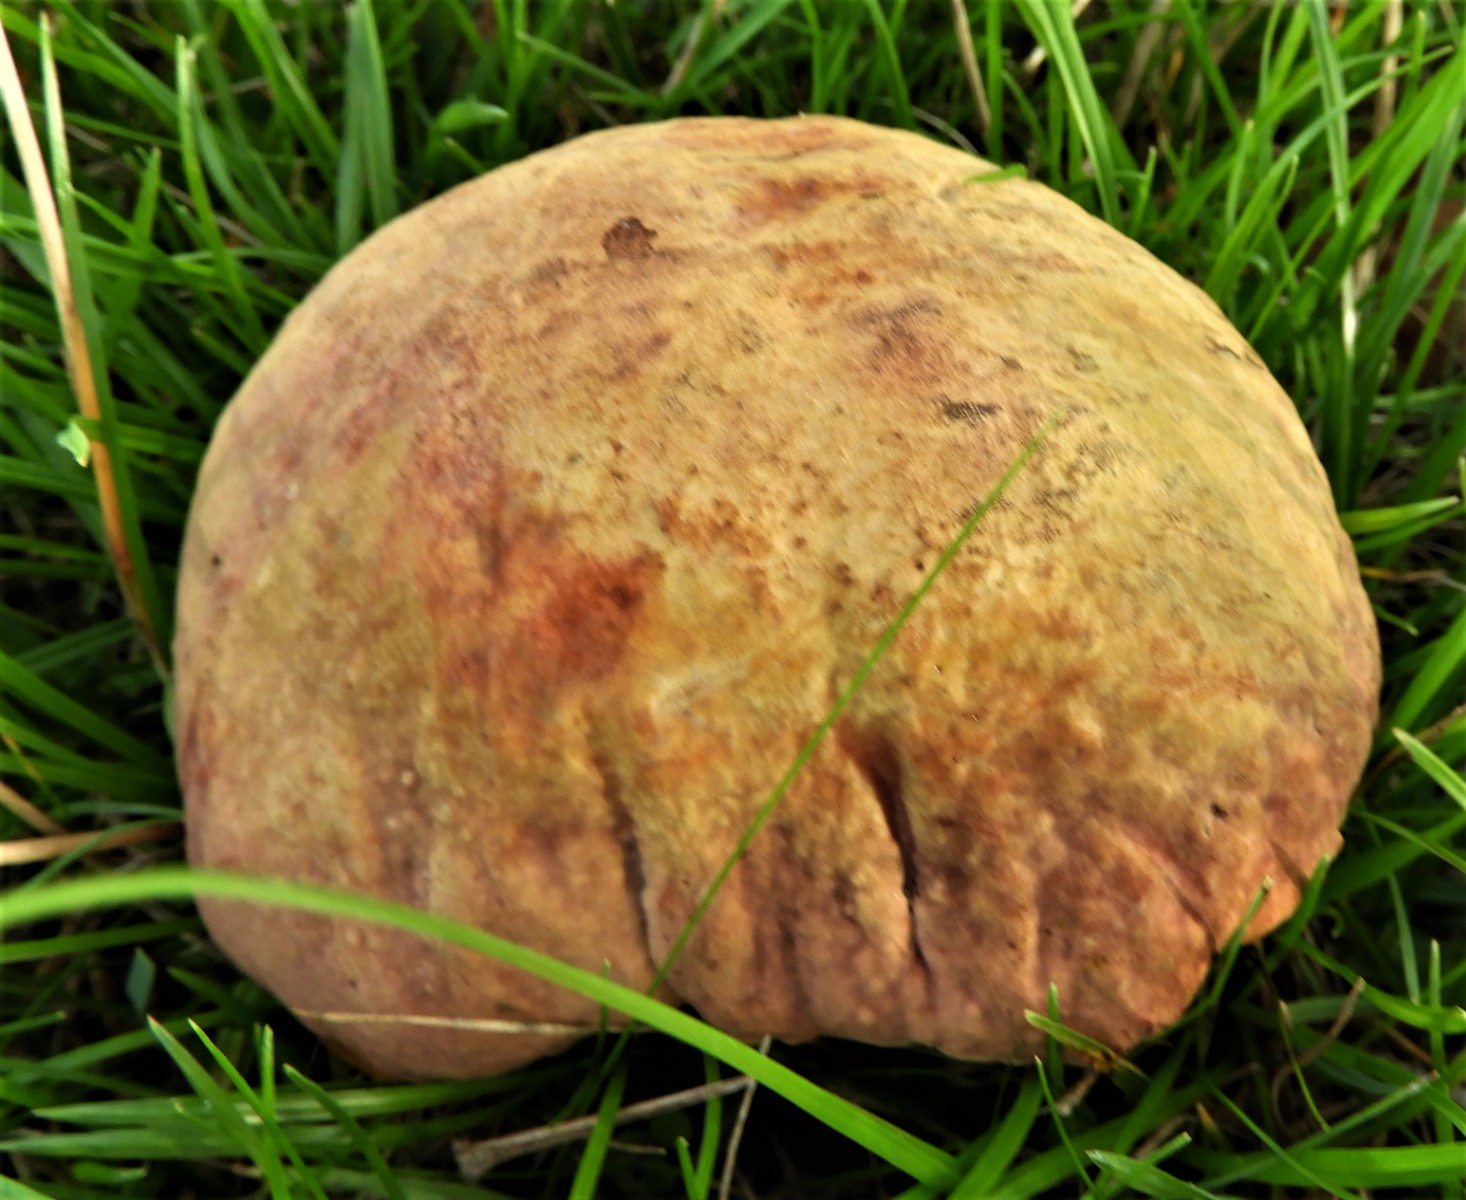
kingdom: Fungi
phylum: Basidiomycota
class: Agaricomycetes
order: Boletales
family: Boletaceae
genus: Suillellus
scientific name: Suillellus luridus
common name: netstokket indigorørhat
